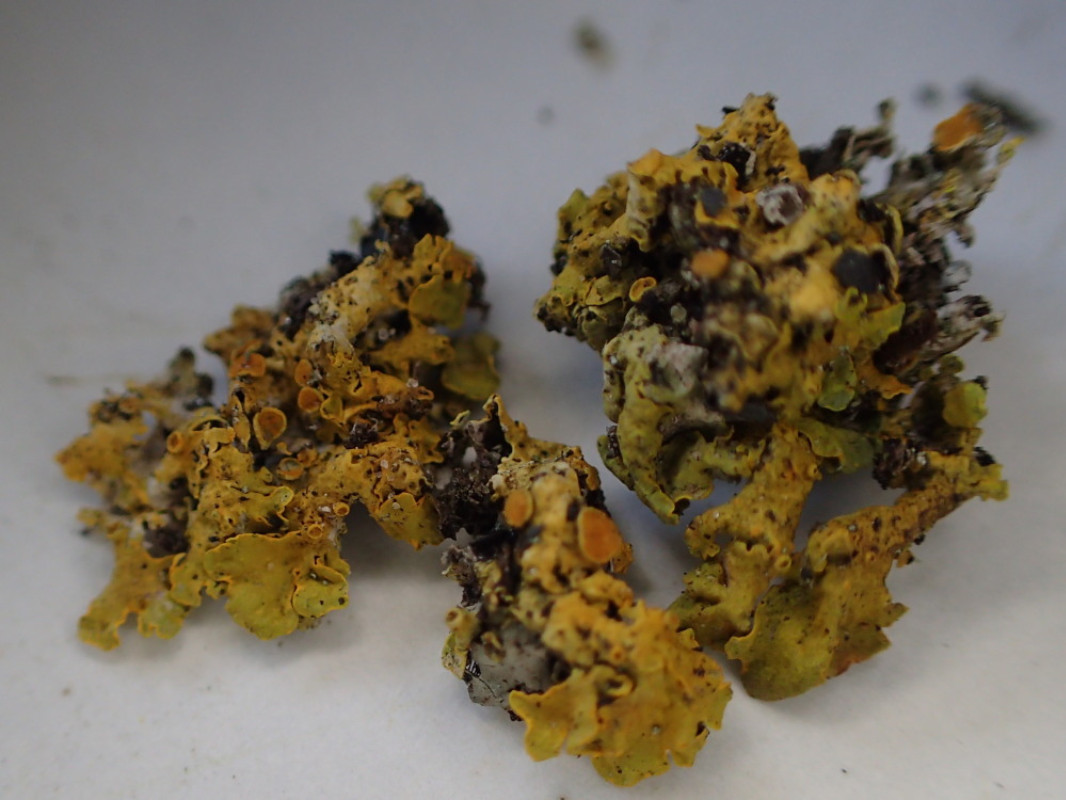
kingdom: Fungi
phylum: Ascomycota
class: Lecanoromycetes
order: Teloschistales
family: Teloschistaceae
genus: Xanthoria
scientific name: Xanthoria parietina
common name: almindelig væggelav
